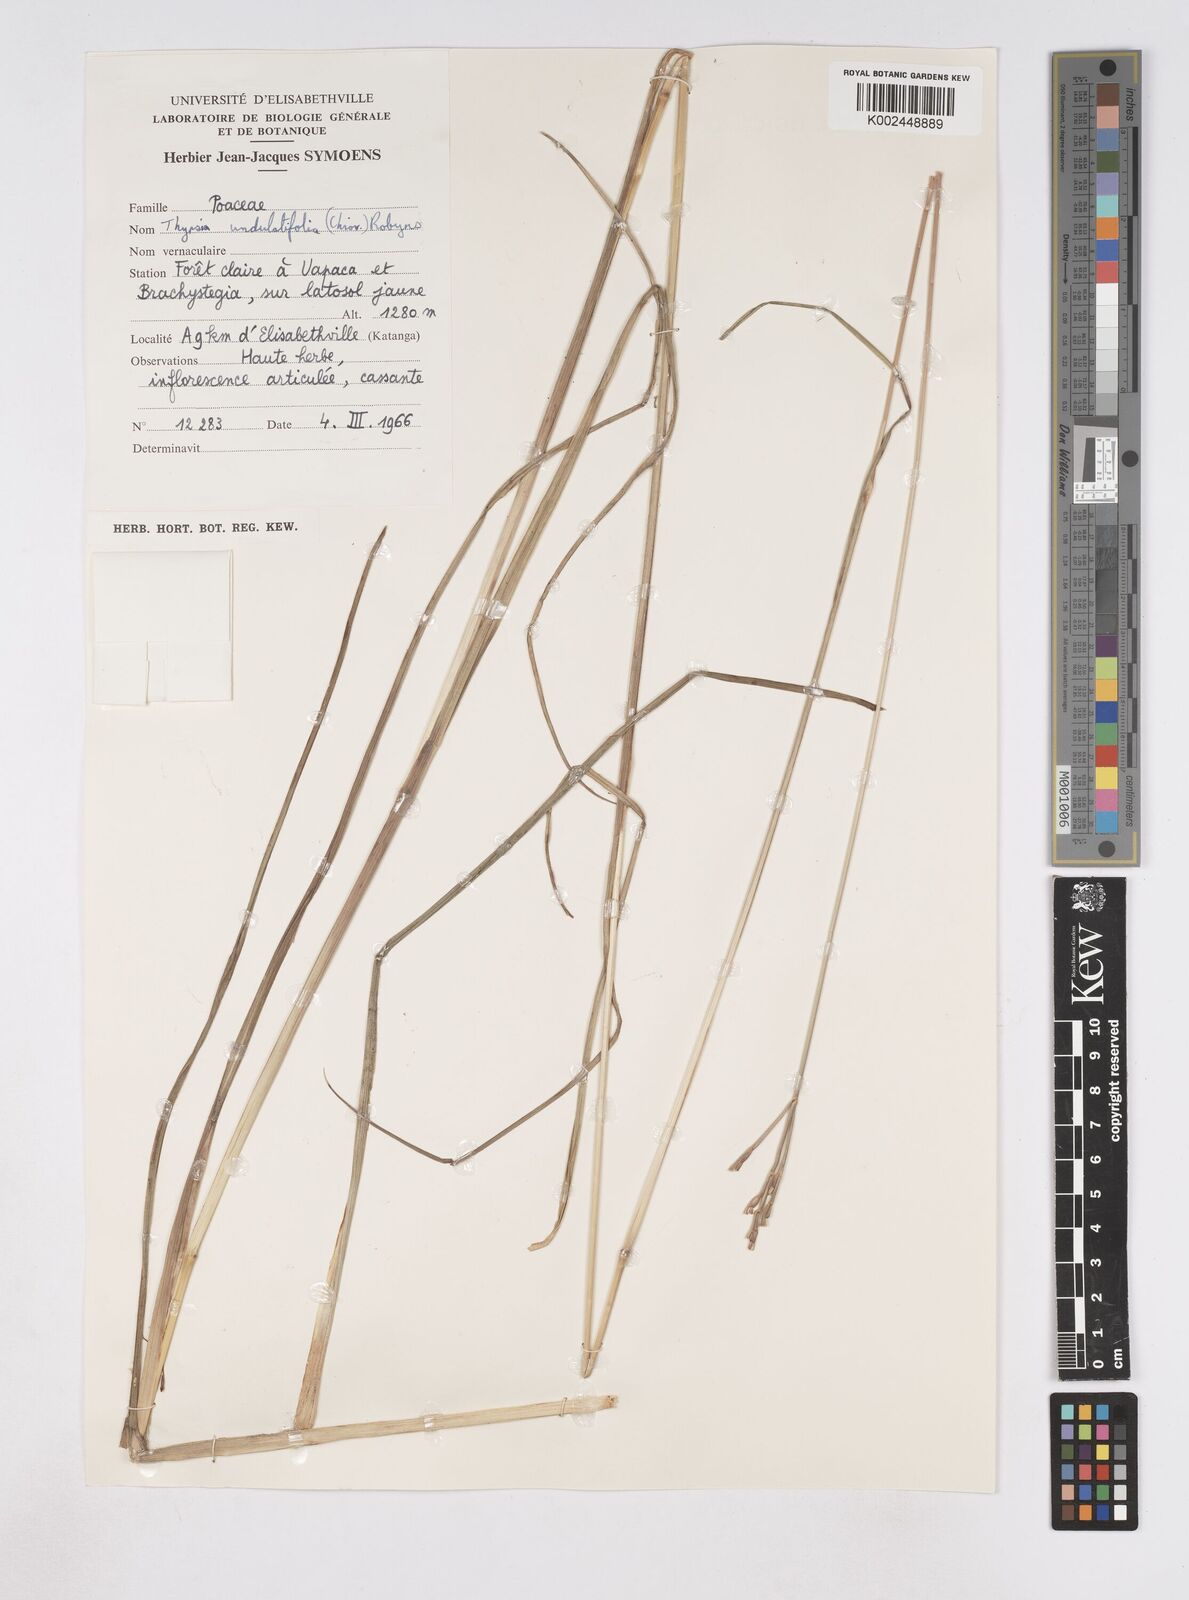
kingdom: Plantae
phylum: Tracheophyta
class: Liliopsida
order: Poales
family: Poaceae
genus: Thyrsia
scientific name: Thyrsia huillensis
